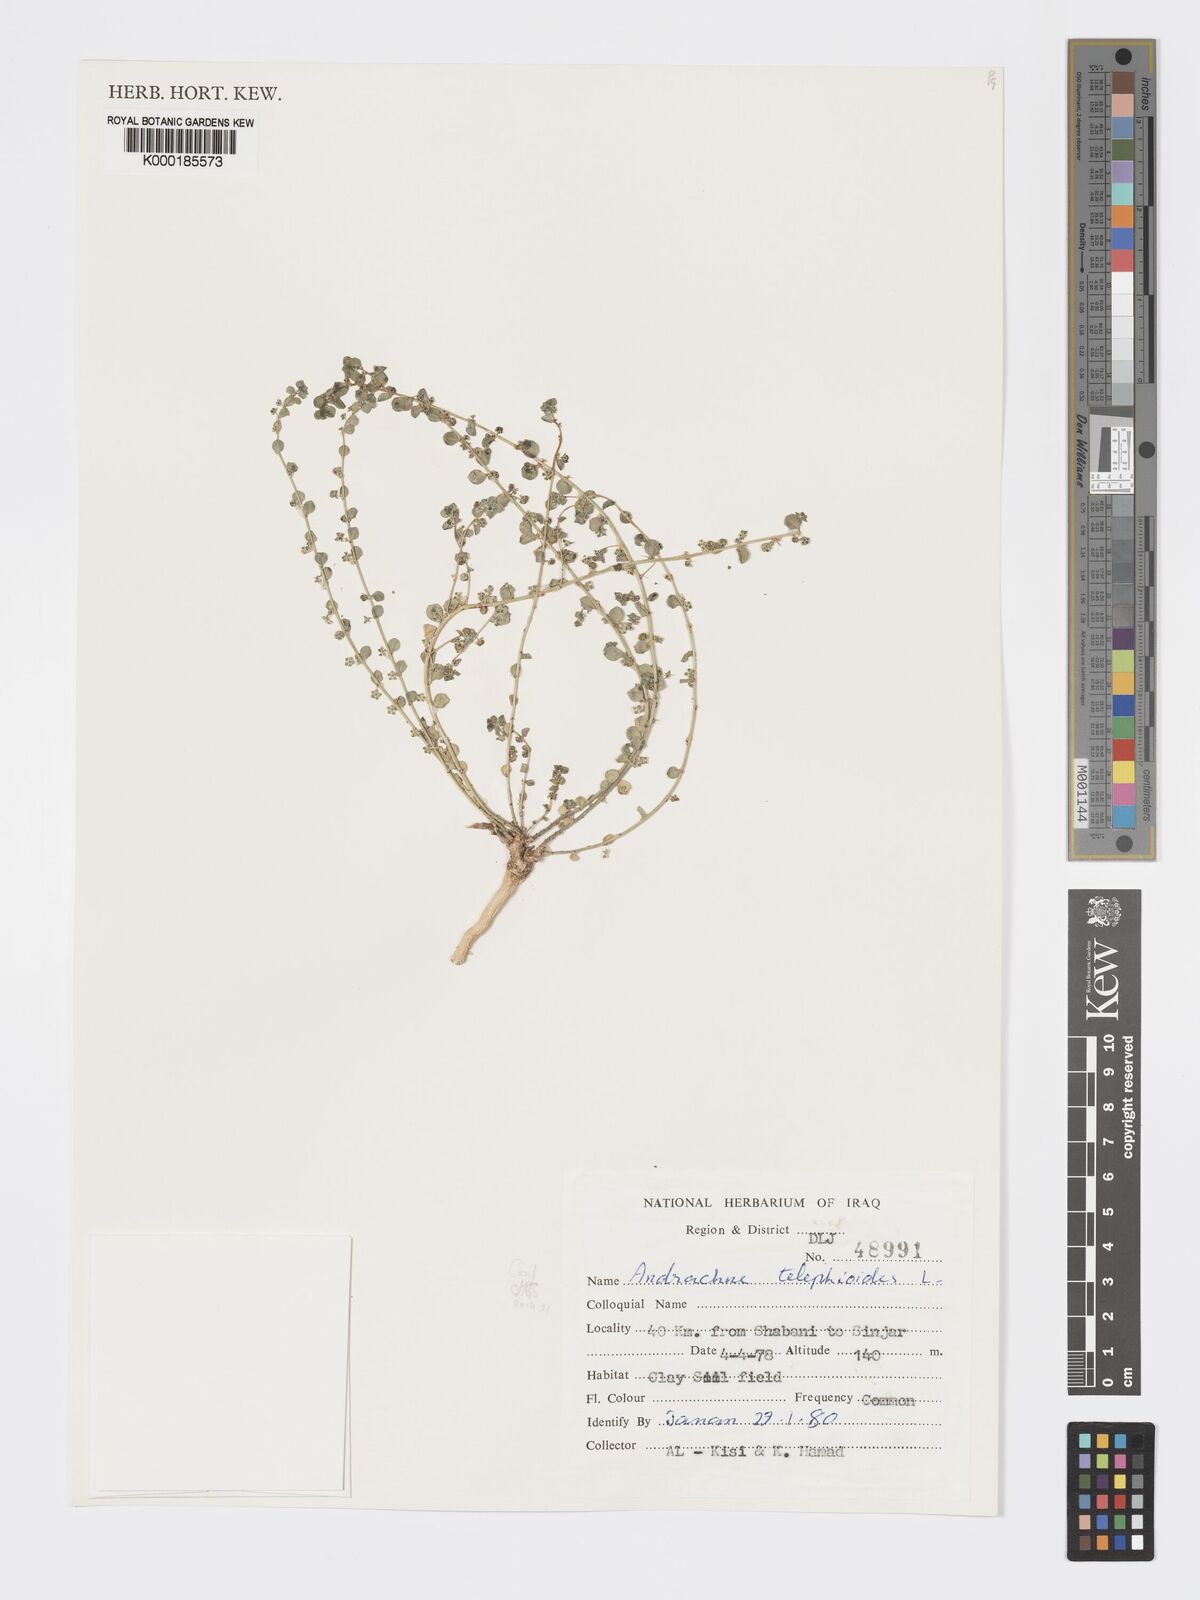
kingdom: Plantae
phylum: Tracheophyta
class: Magnoliopsida
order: Malpighiales
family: Phyllanthaceae
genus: Andrachne
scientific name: Andrachne telephioides
